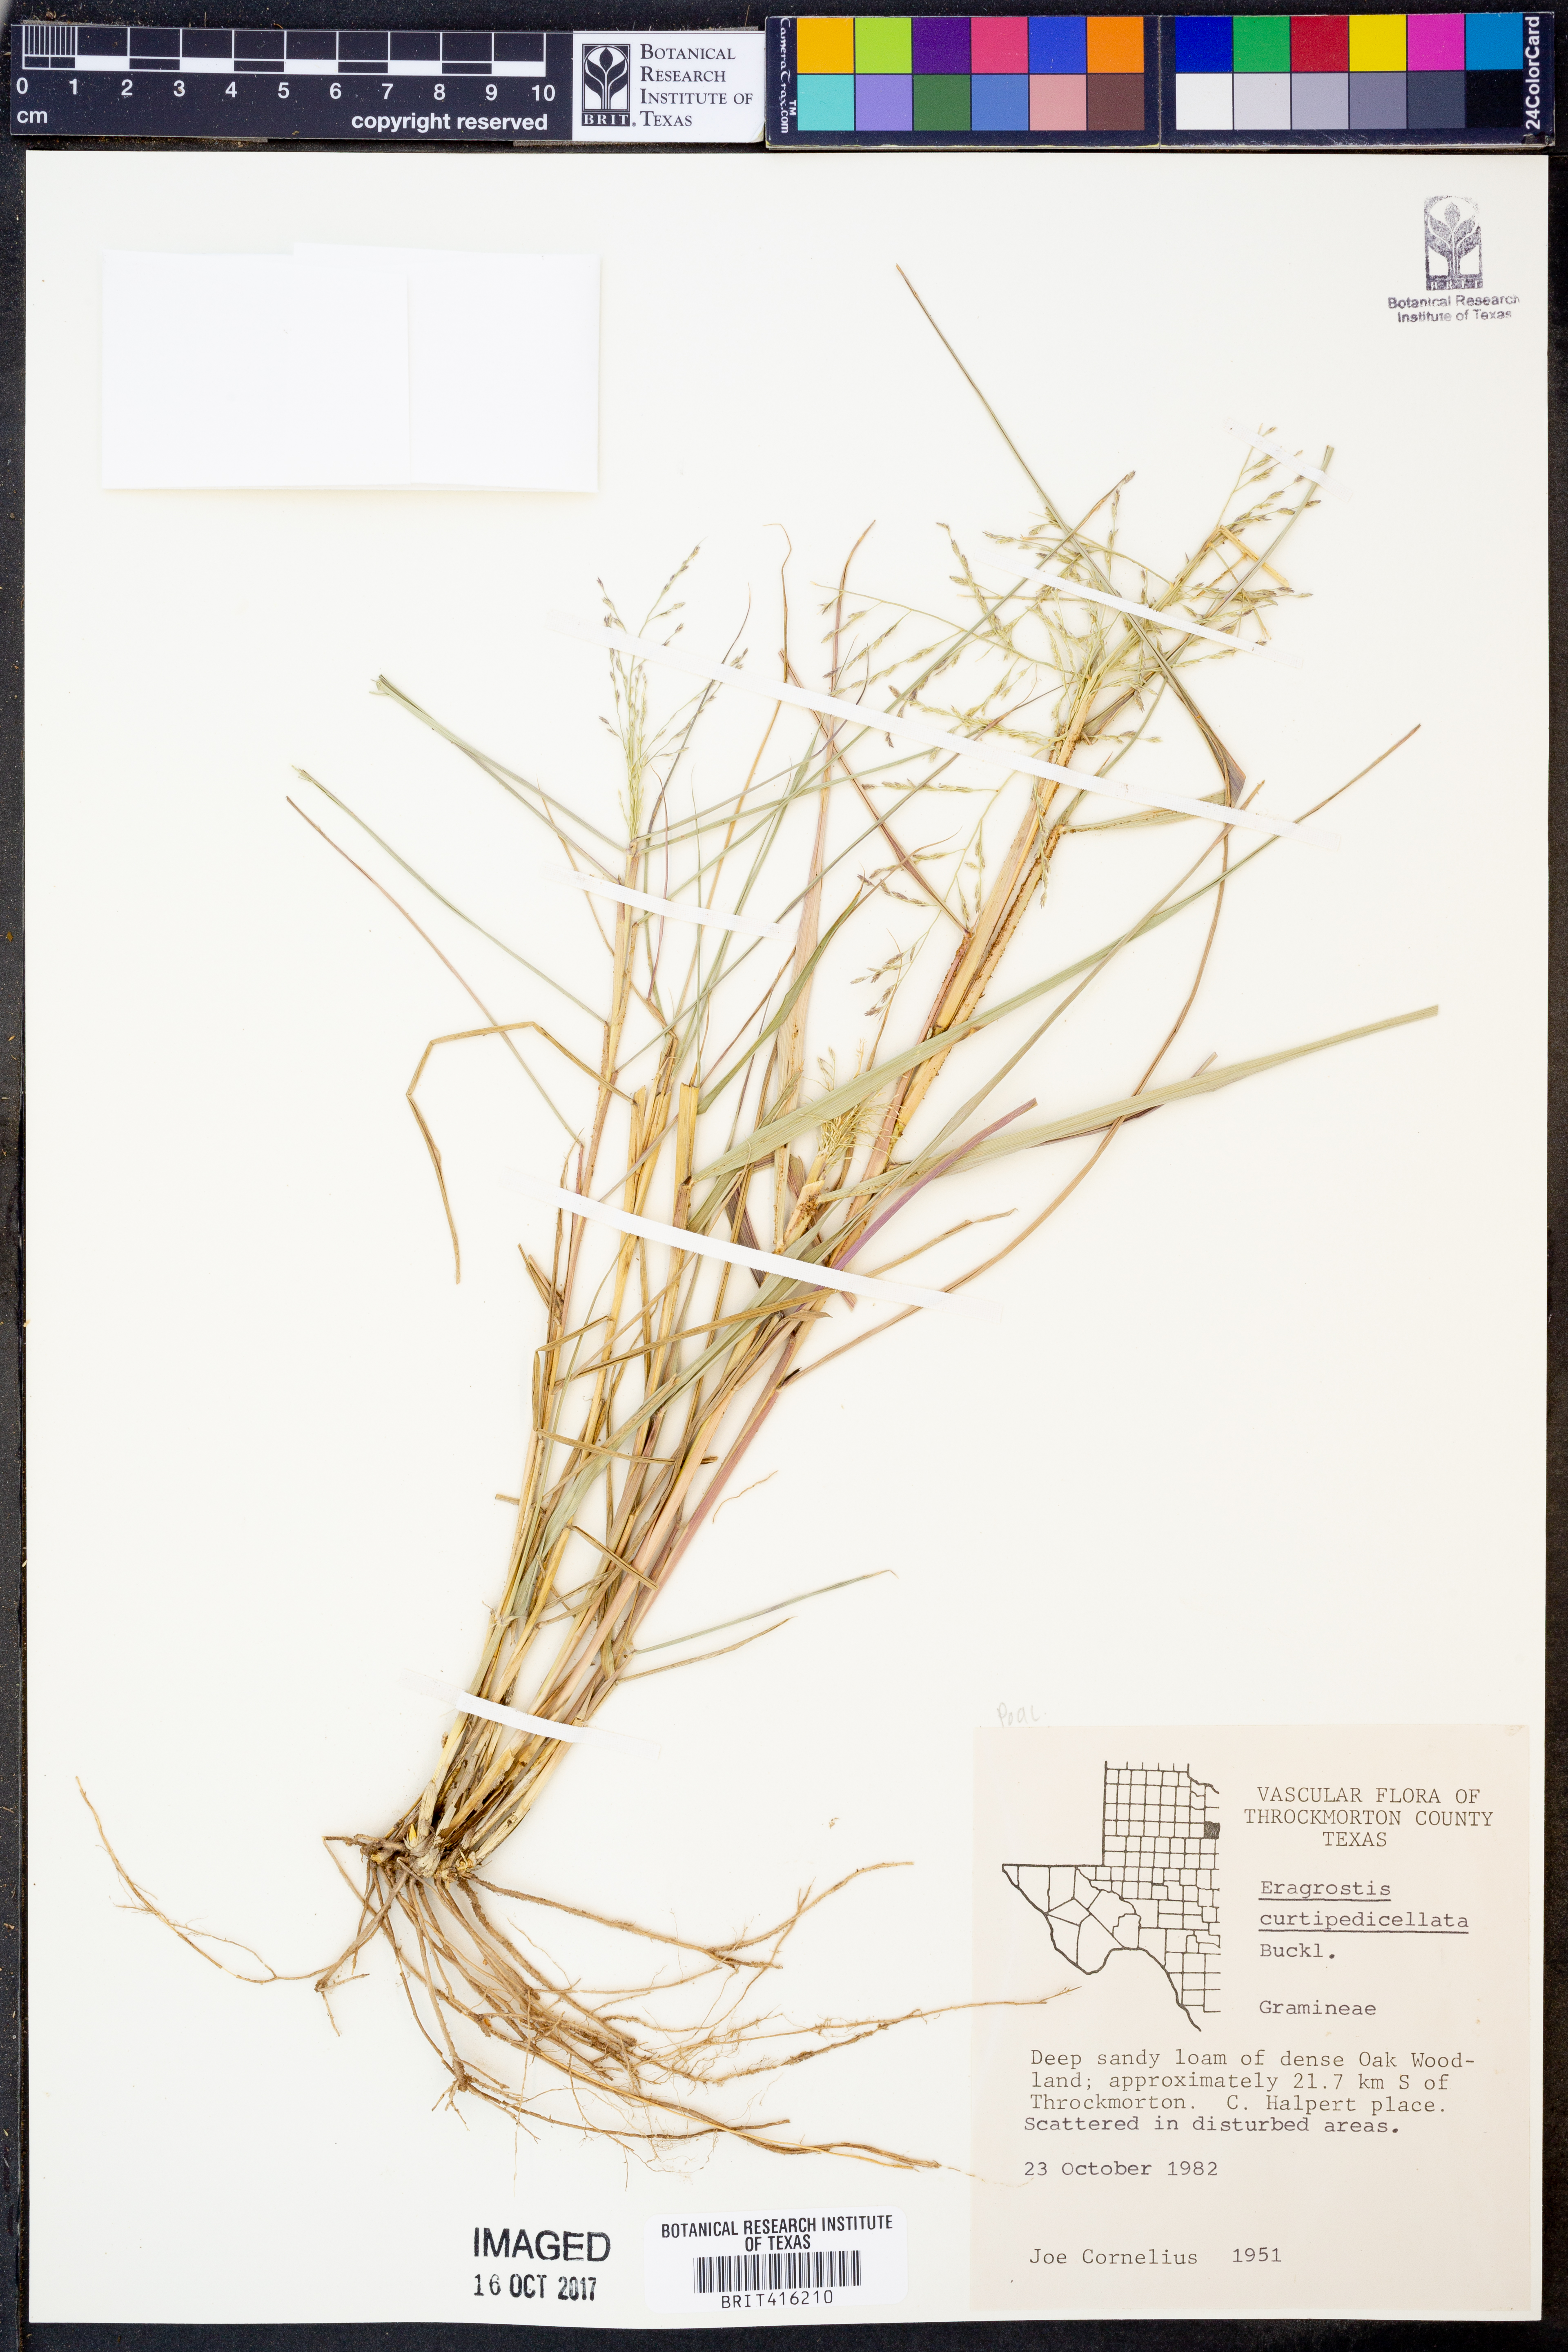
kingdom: Plantae
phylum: Tracheophyta
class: Liliopsida
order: Poales
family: Poaceae
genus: Eragrostis
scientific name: Eragrostis curtipedicellata
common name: Gummy love grass
